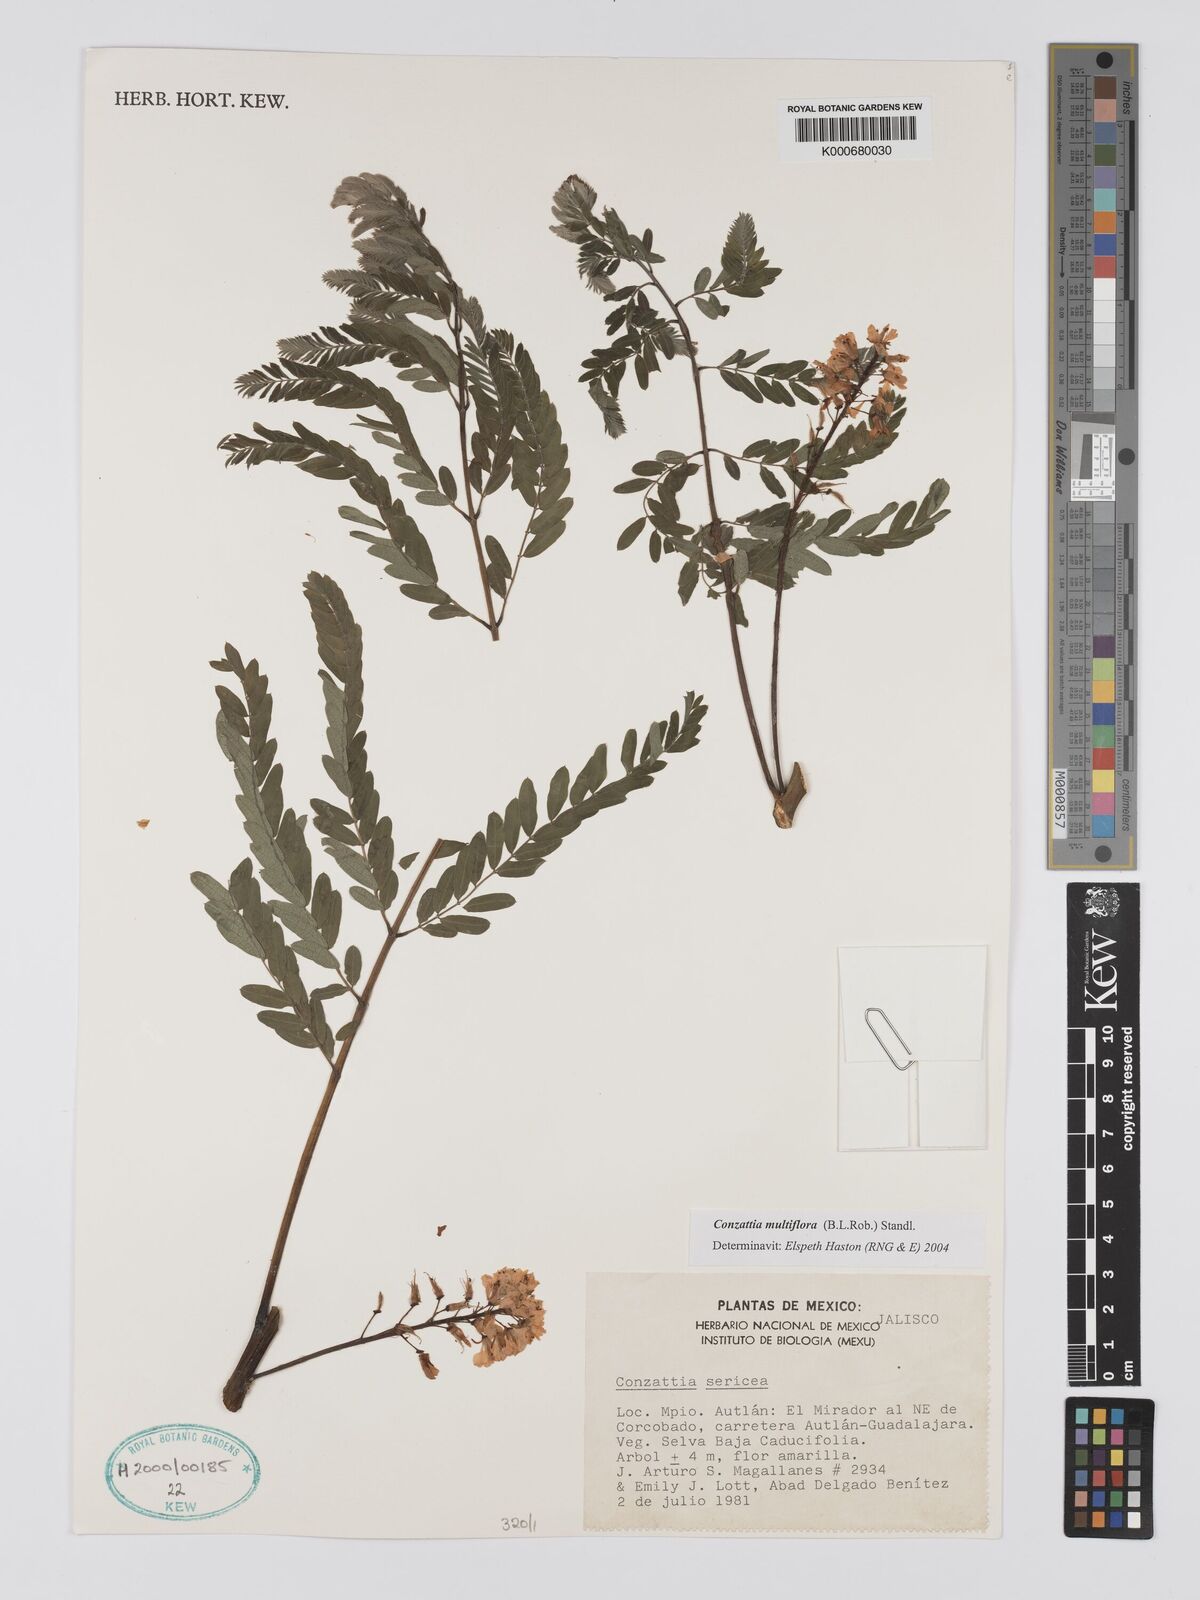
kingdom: Plantae
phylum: Tracheophyta
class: Magnoliopsida
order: Fabales
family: Fabaceae
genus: Conzattia
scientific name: Conzattia multiflora
